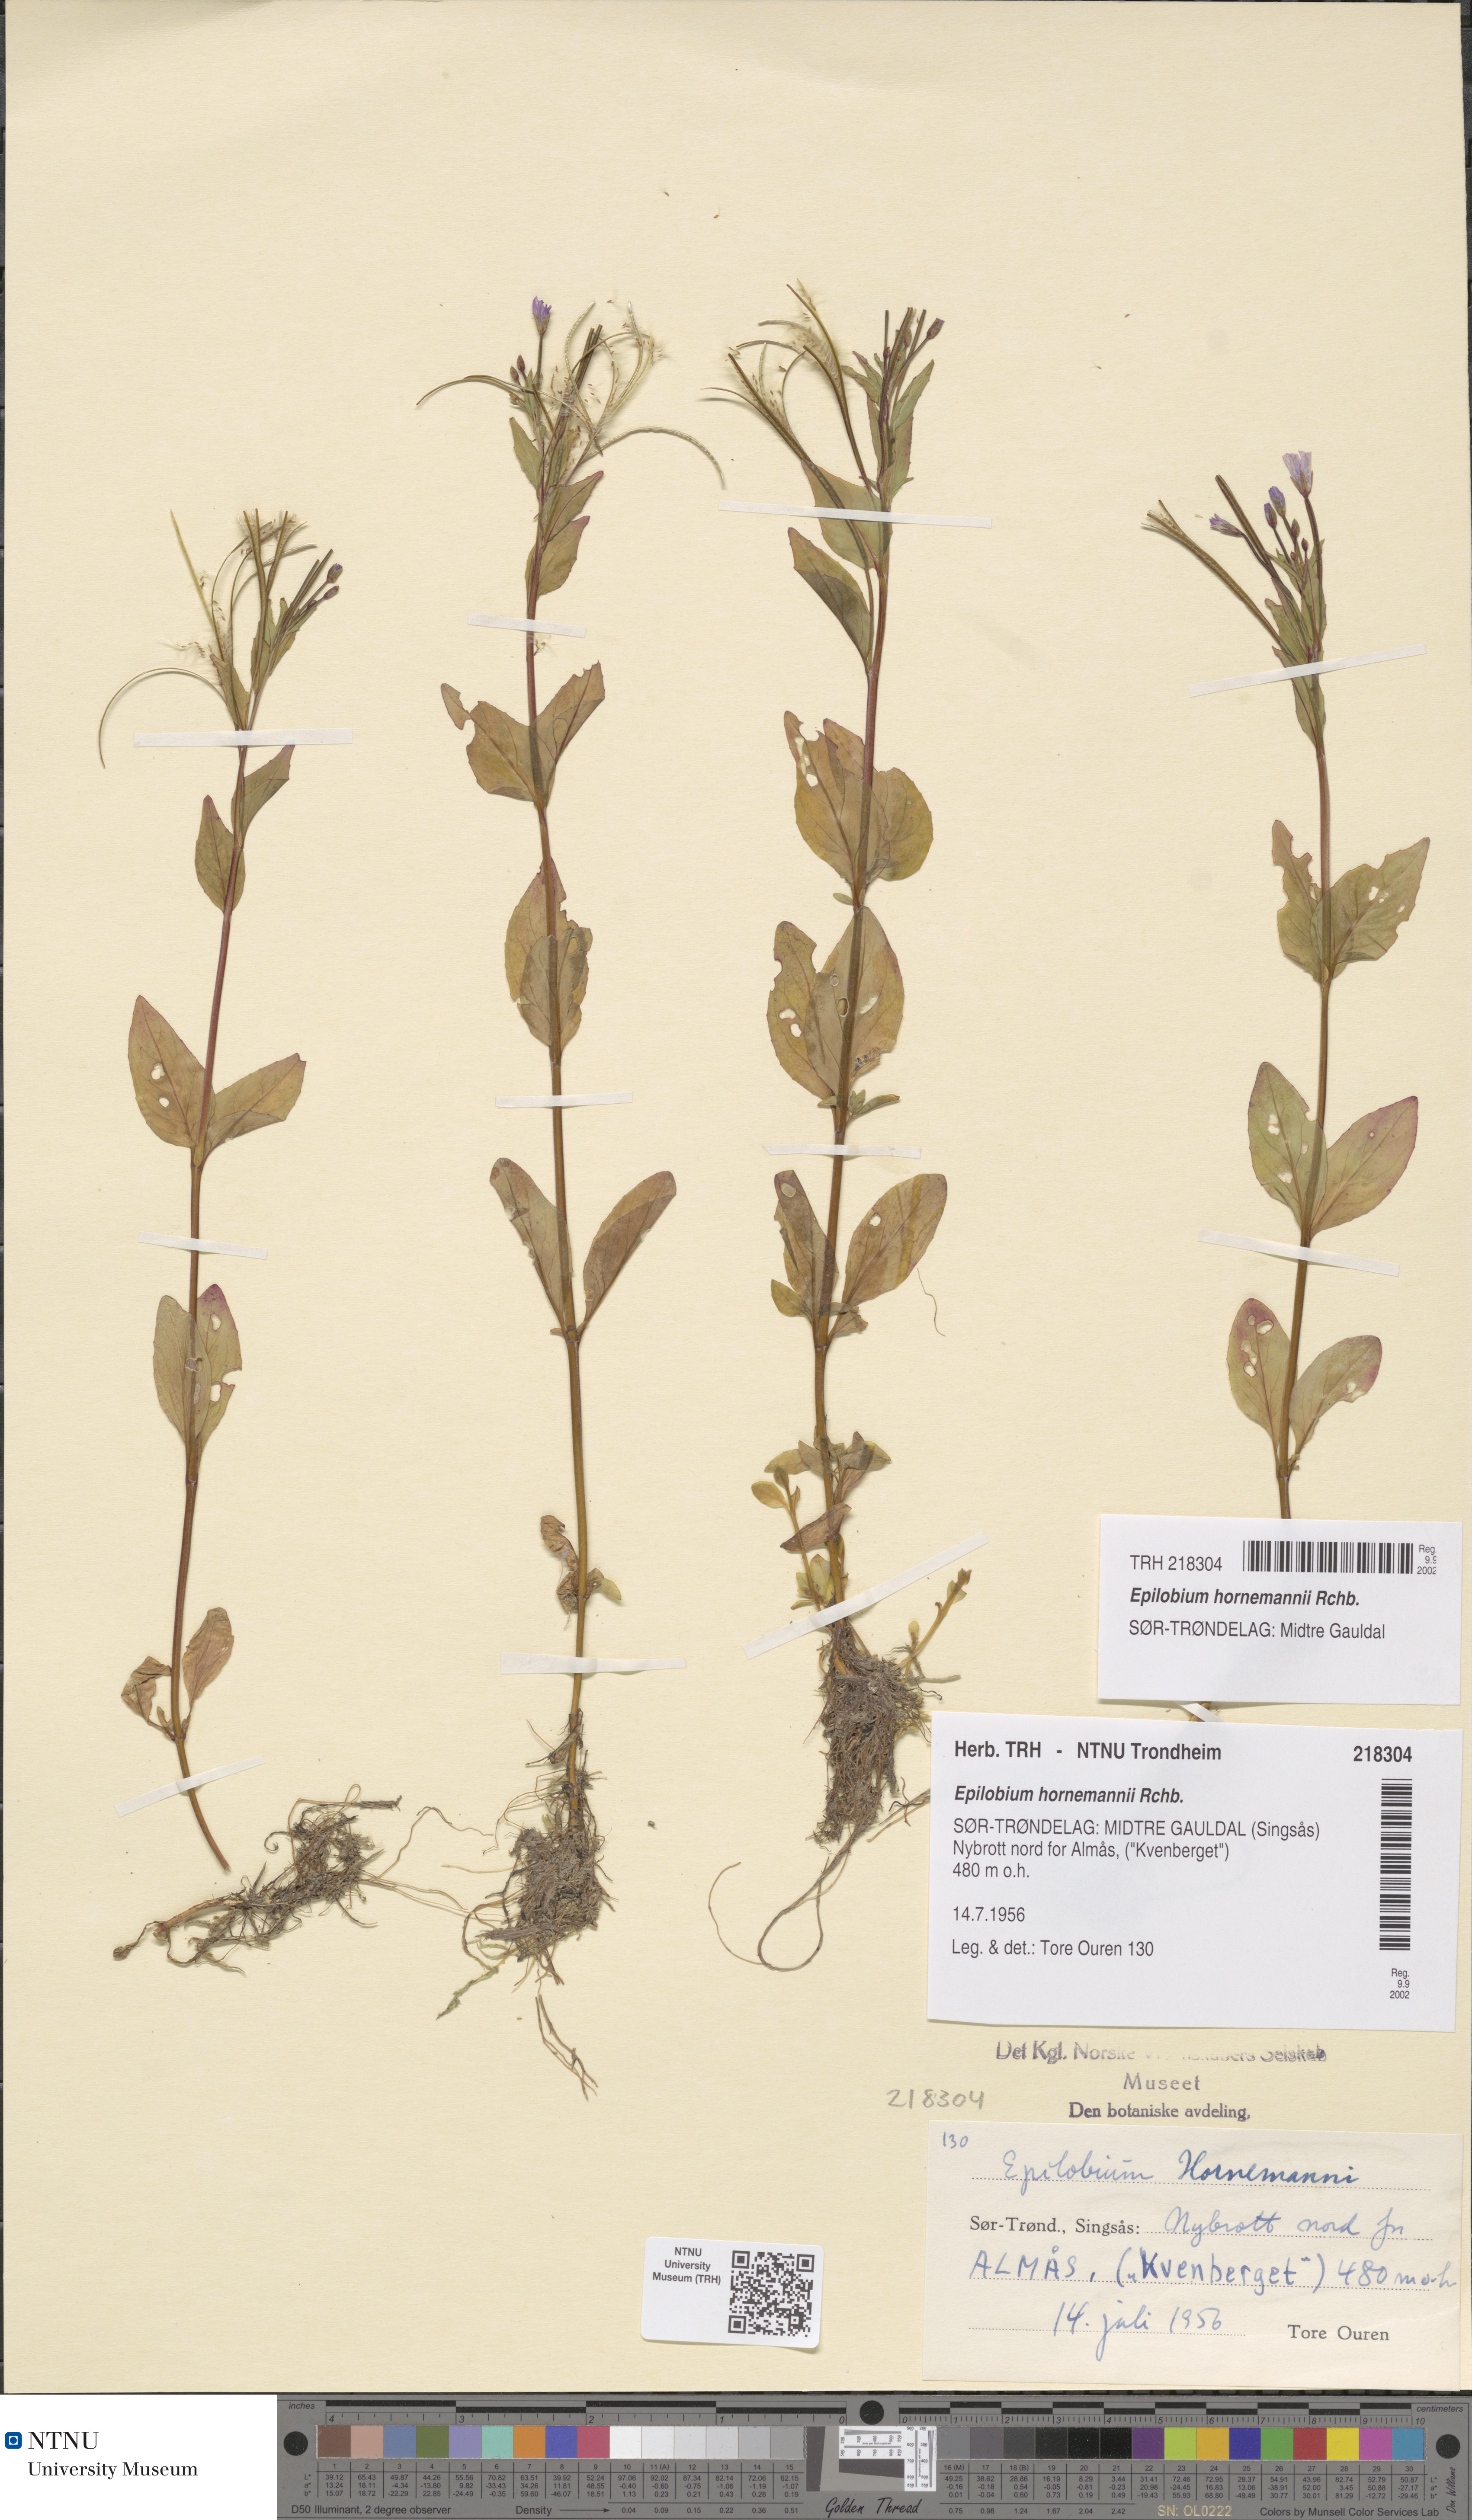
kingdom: Plantae
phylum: Tracheophyta
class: Magnoliopsida
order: Myrtales
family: Onagraceae
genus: Epilobium
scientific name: Epilobium hornemannii
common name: Hornemann's willowherb
